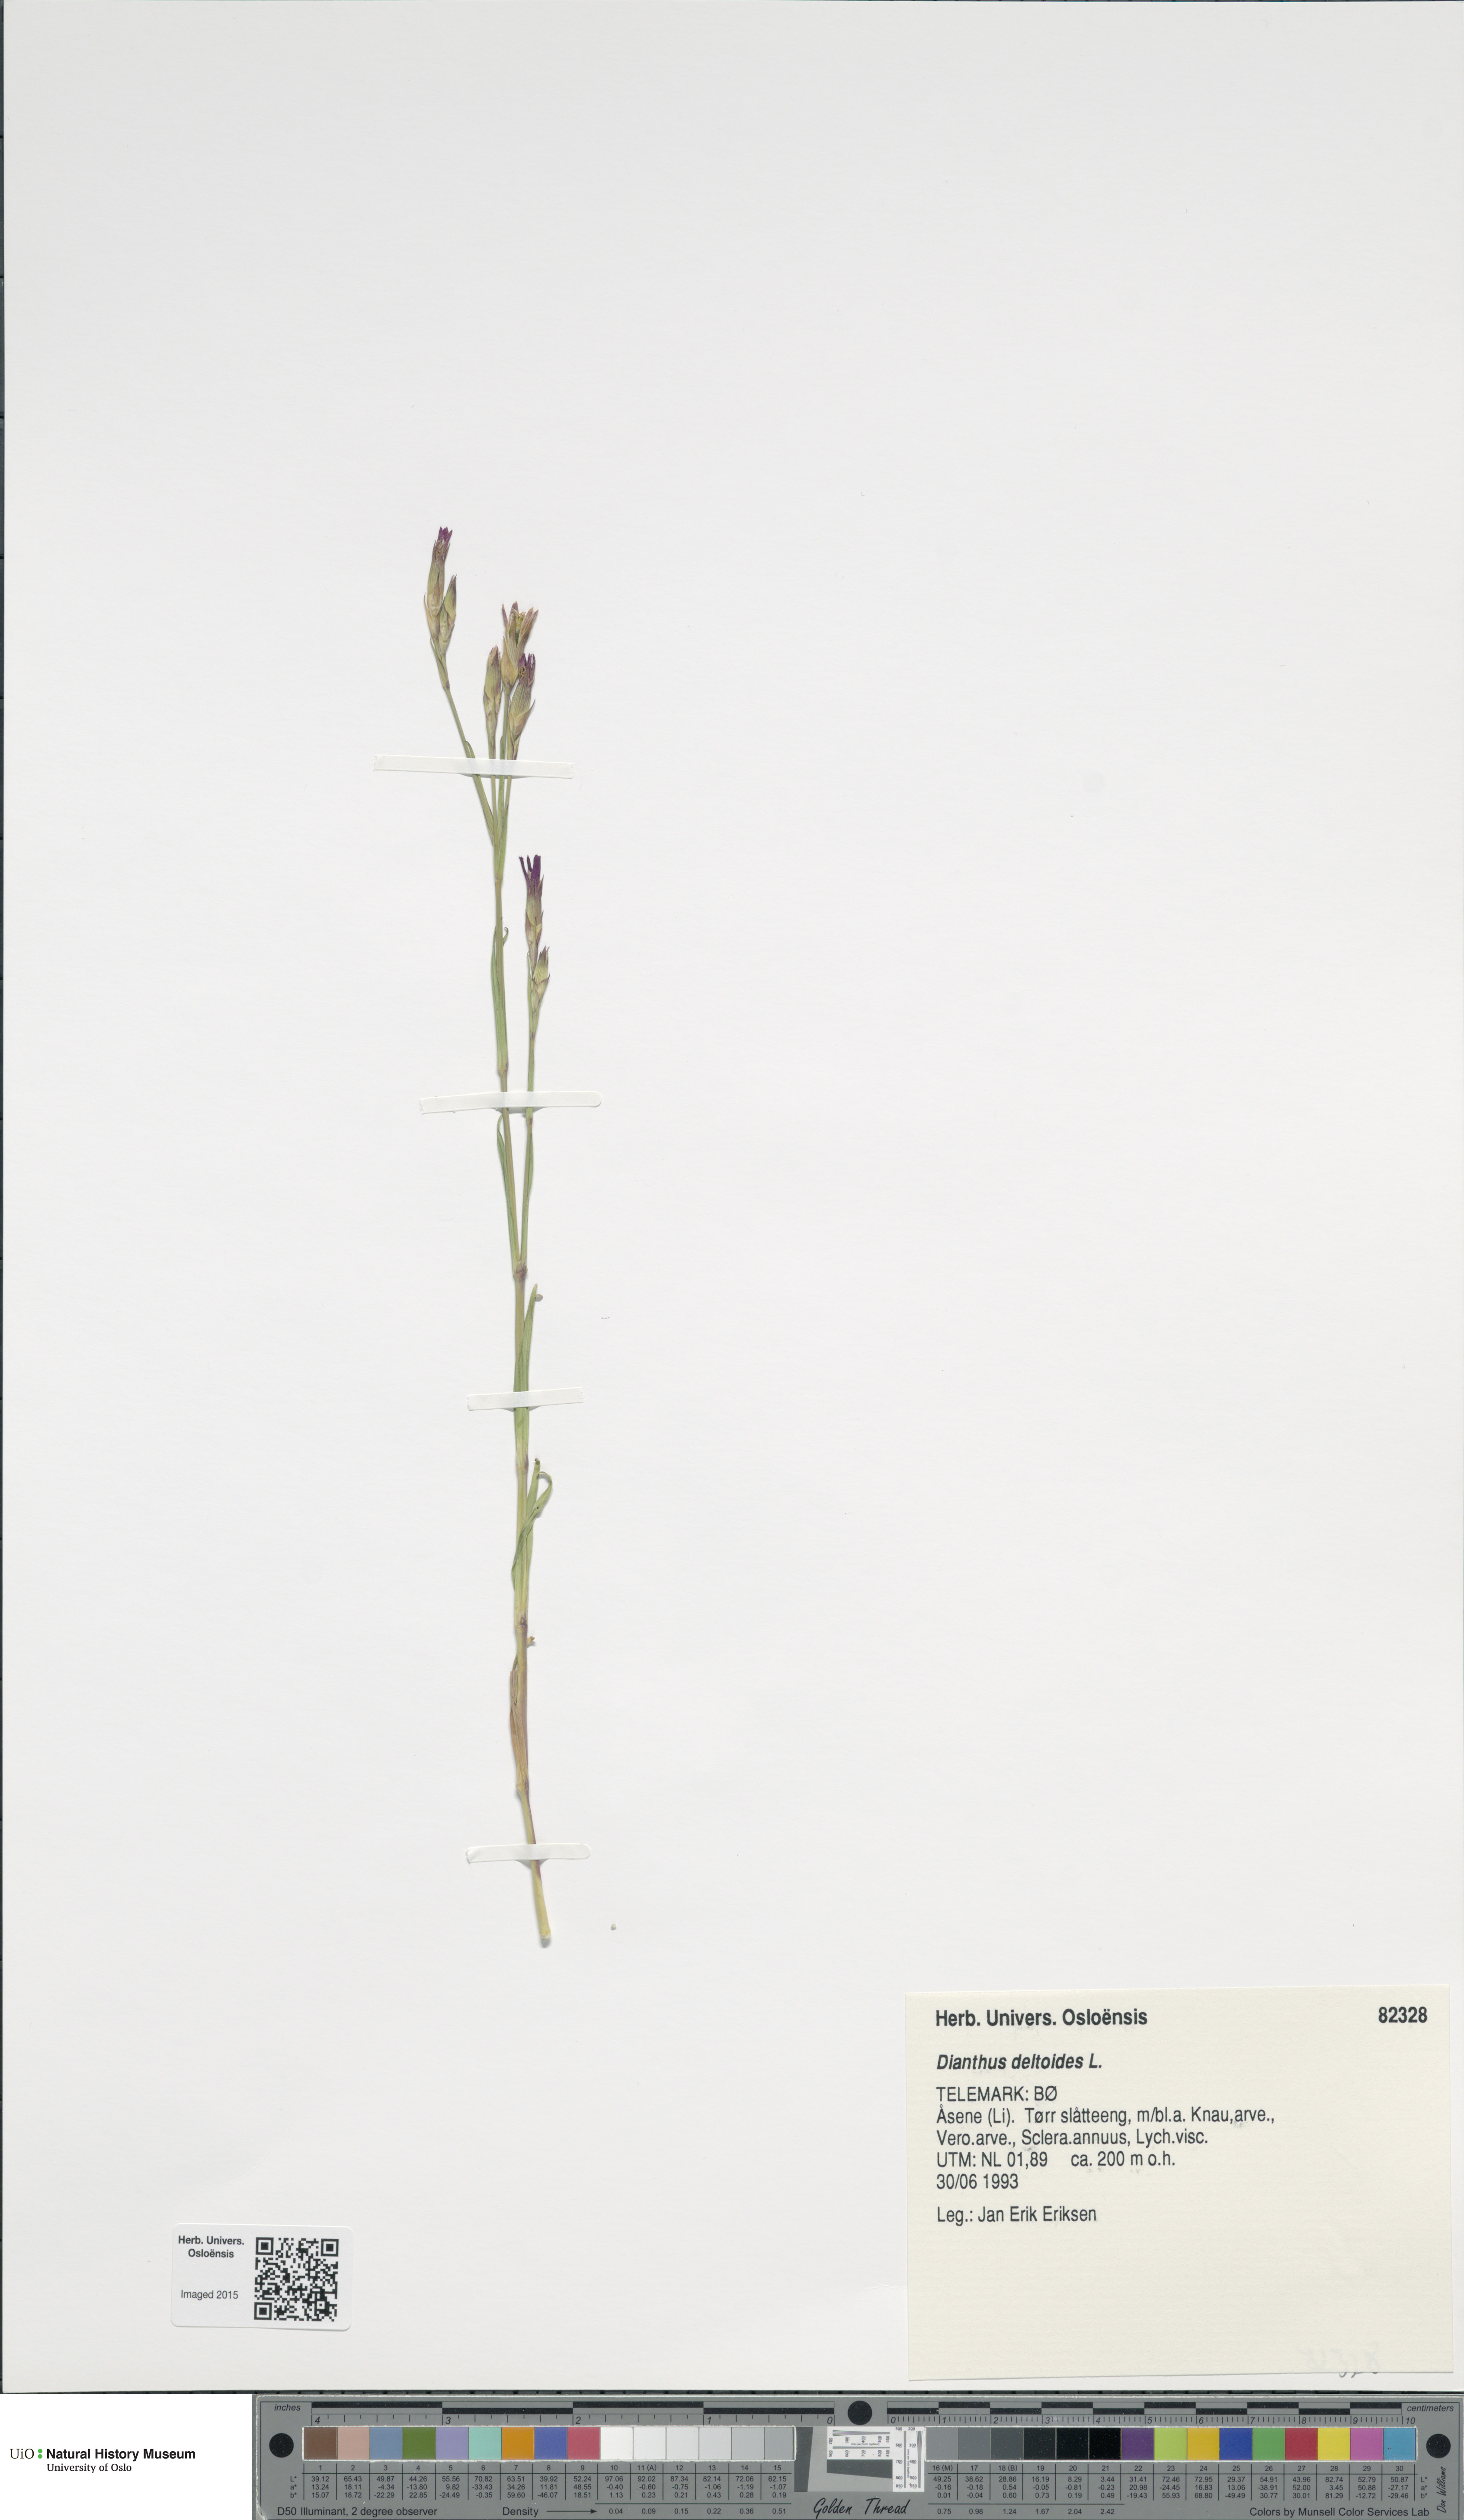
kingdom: Plantae
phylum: Tracheophyta
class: Magnoliopsida
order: Caryophyllales
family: Caryophyllaceae
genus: Dianthus
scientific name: Dianthus deltoides
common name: Maiden pink
